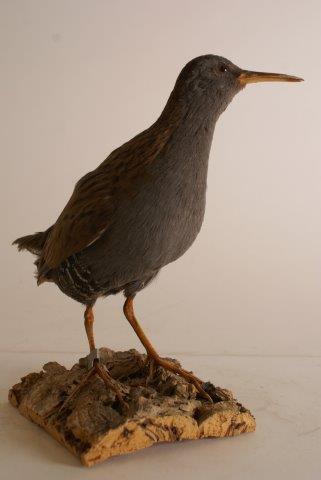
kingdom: Animalia
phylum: Chordata
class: Aves
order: Gruiformes
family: Rallidae
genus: Rallus
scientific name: Rallus aquaticus
